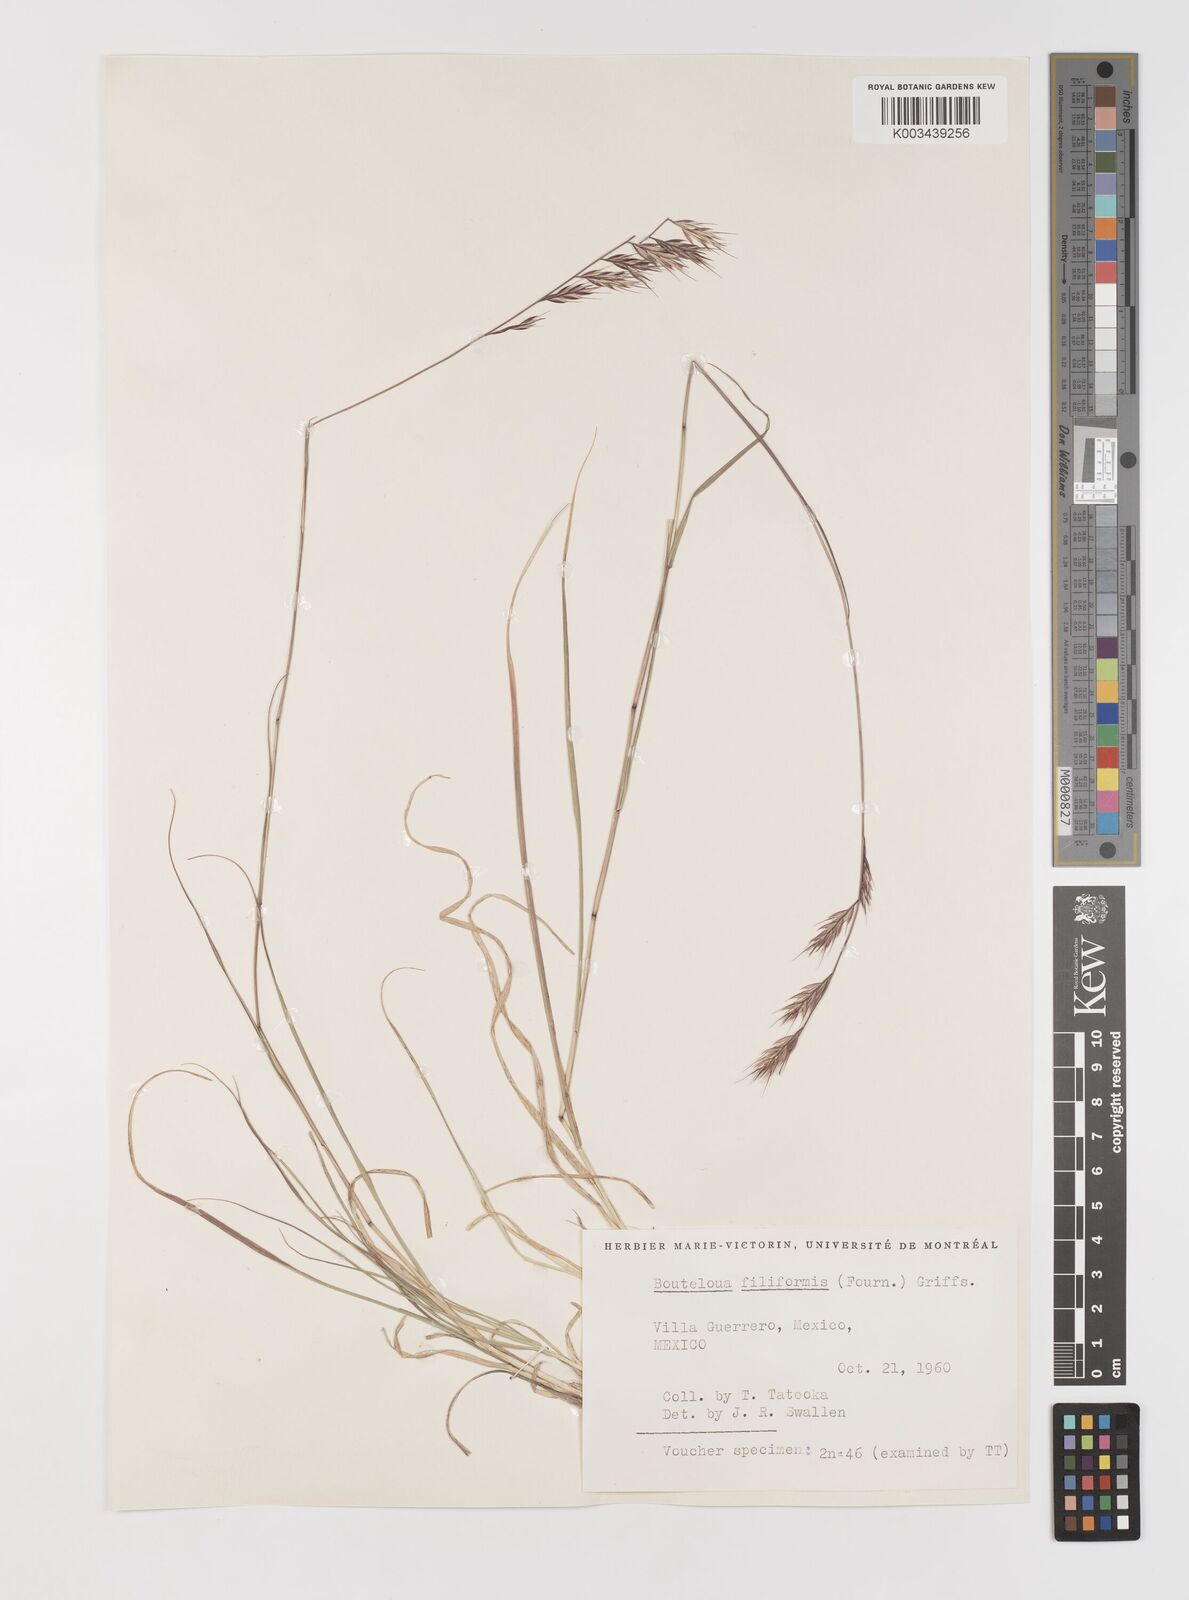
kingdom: Plantae
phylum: Tracheophyta
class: Liliopsida
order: Poales
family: Poaceae
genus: Bouteloua
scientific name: Bouteloua repens
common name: Slender grama
